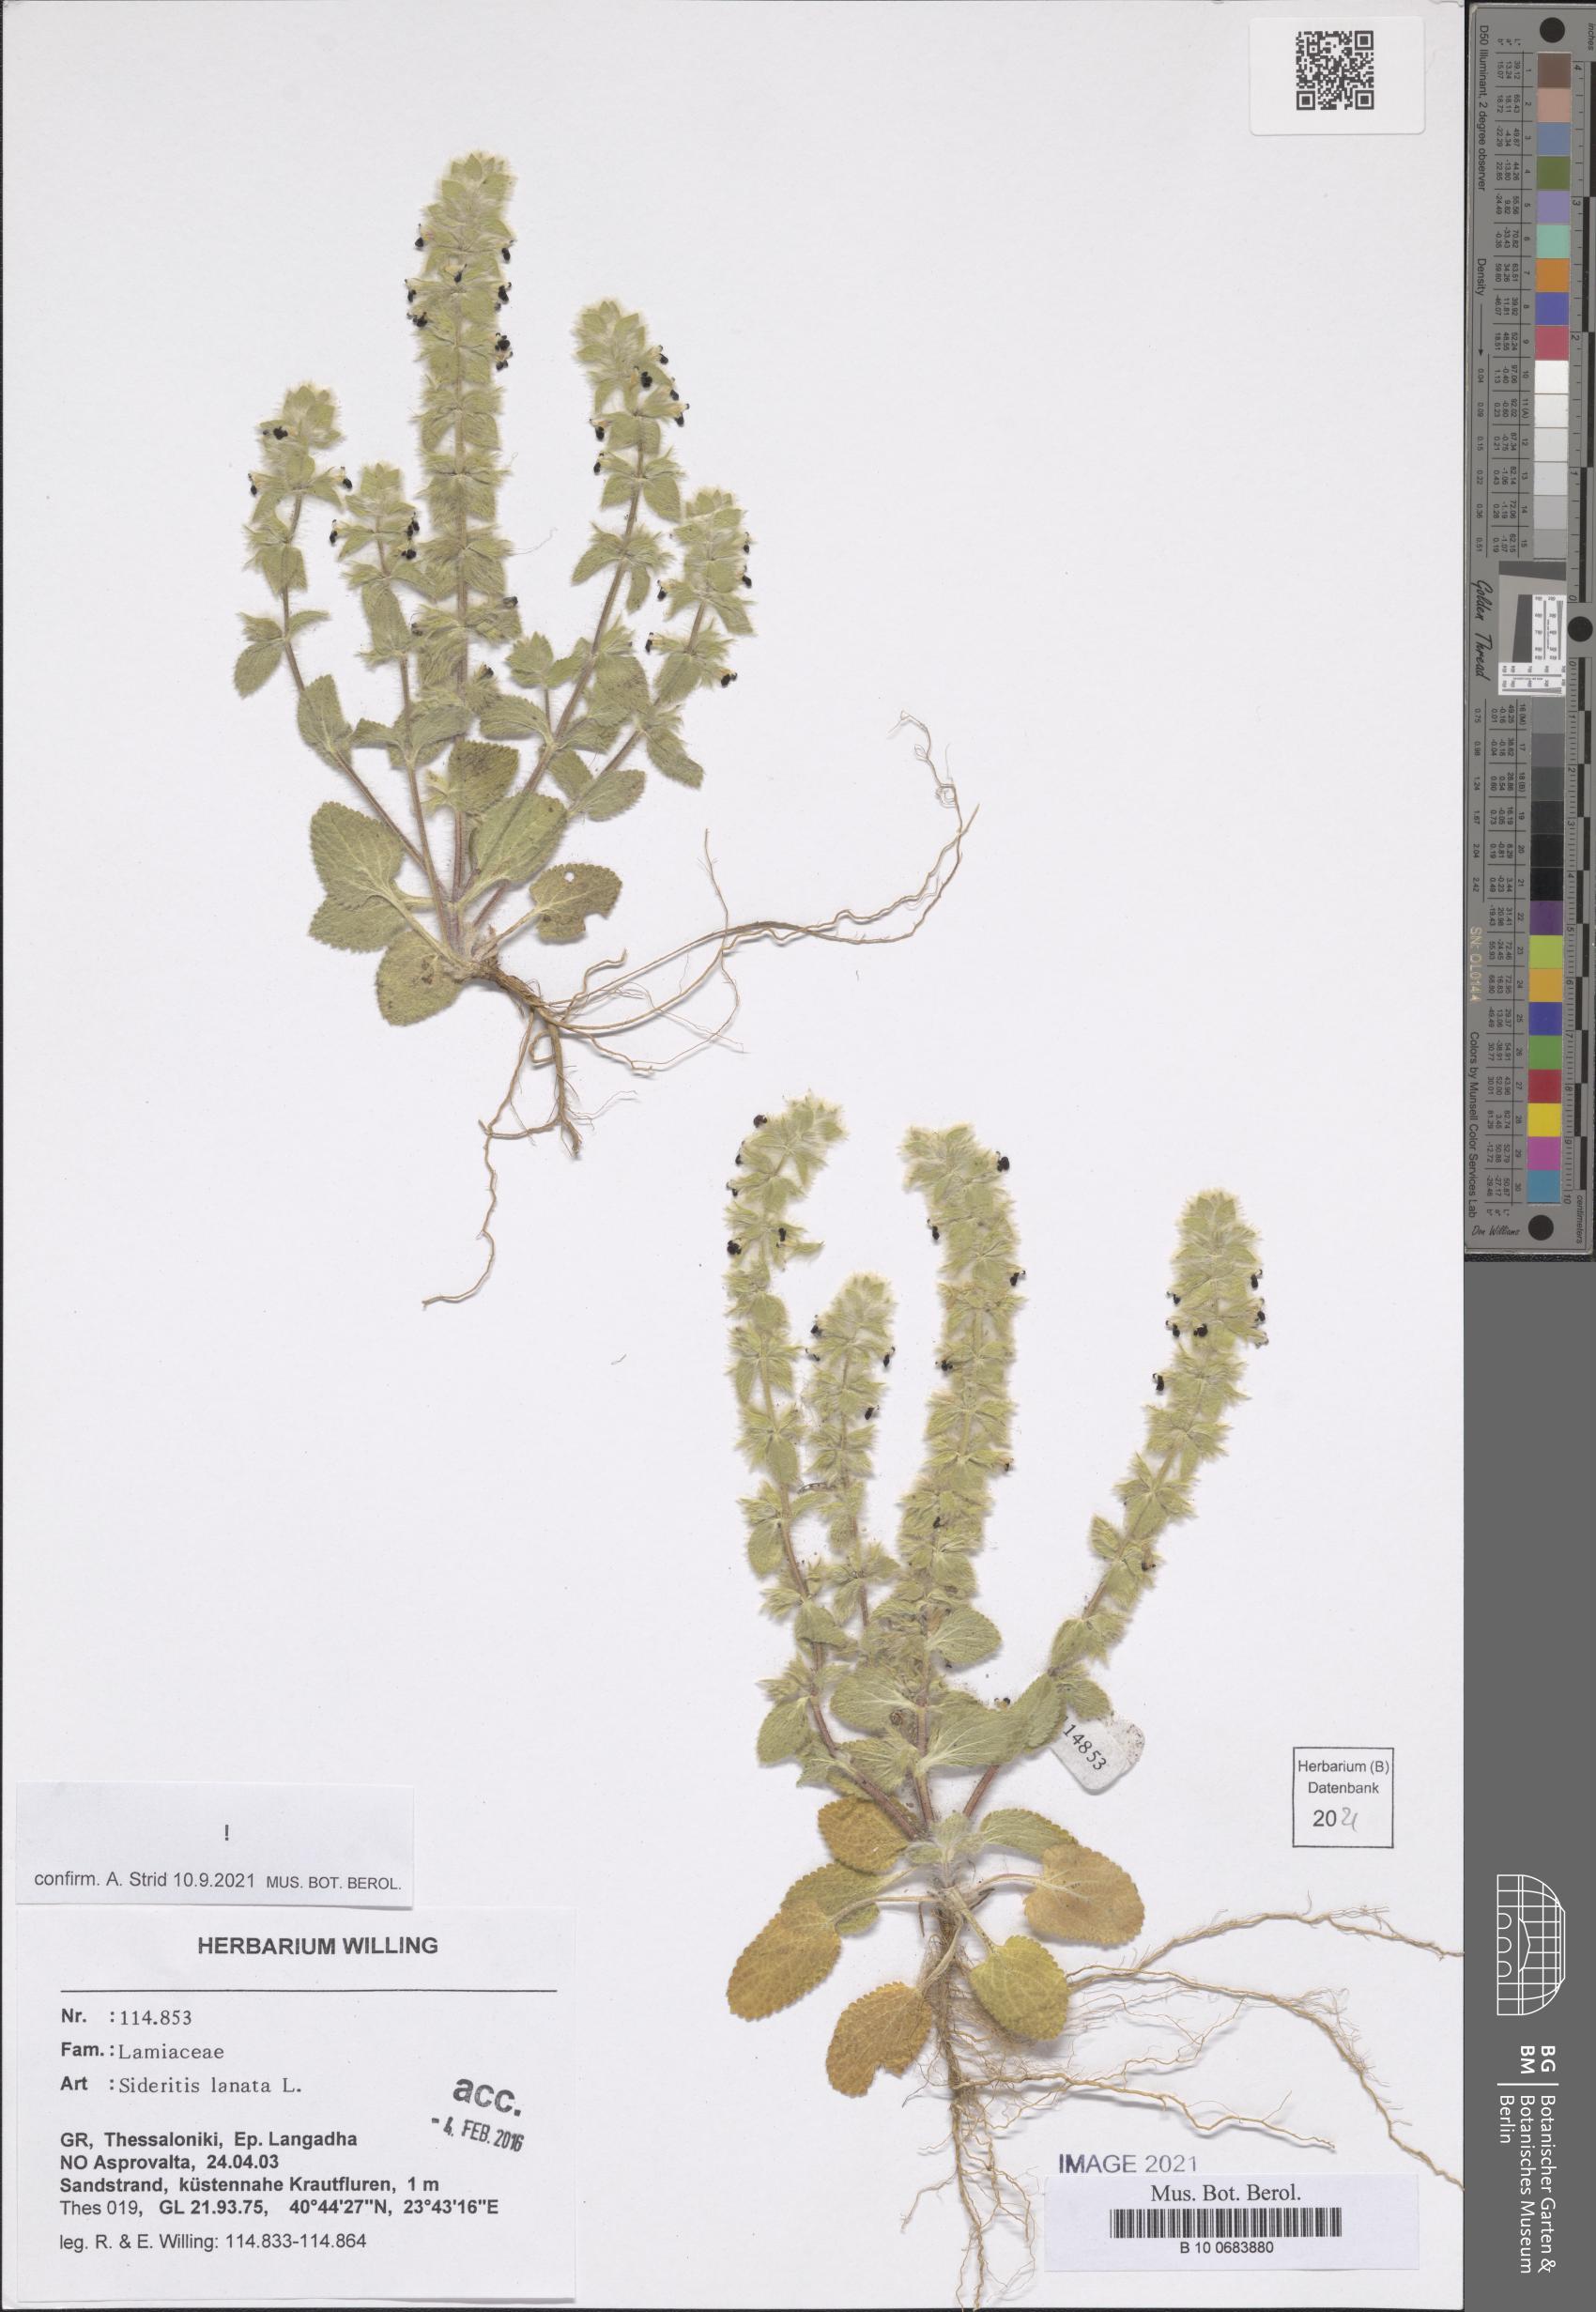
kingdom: Plantae
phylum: Tracheophyta
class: Magnoliopsida
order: Lamiales
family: Lamiaceae
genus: Sideritis
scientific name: Sideritis lanata
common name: Hairy ironwort
